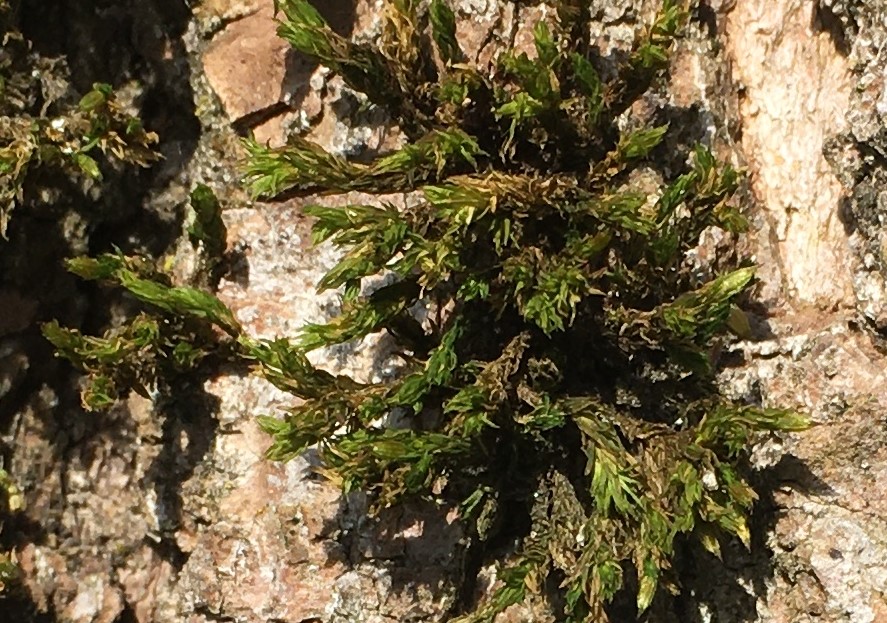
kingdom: Fungi
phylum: Ascomycota
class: Pezizomycetes
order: Pezizales
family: Pyronemataceae
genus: Octospora
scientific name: Octospora affinis
